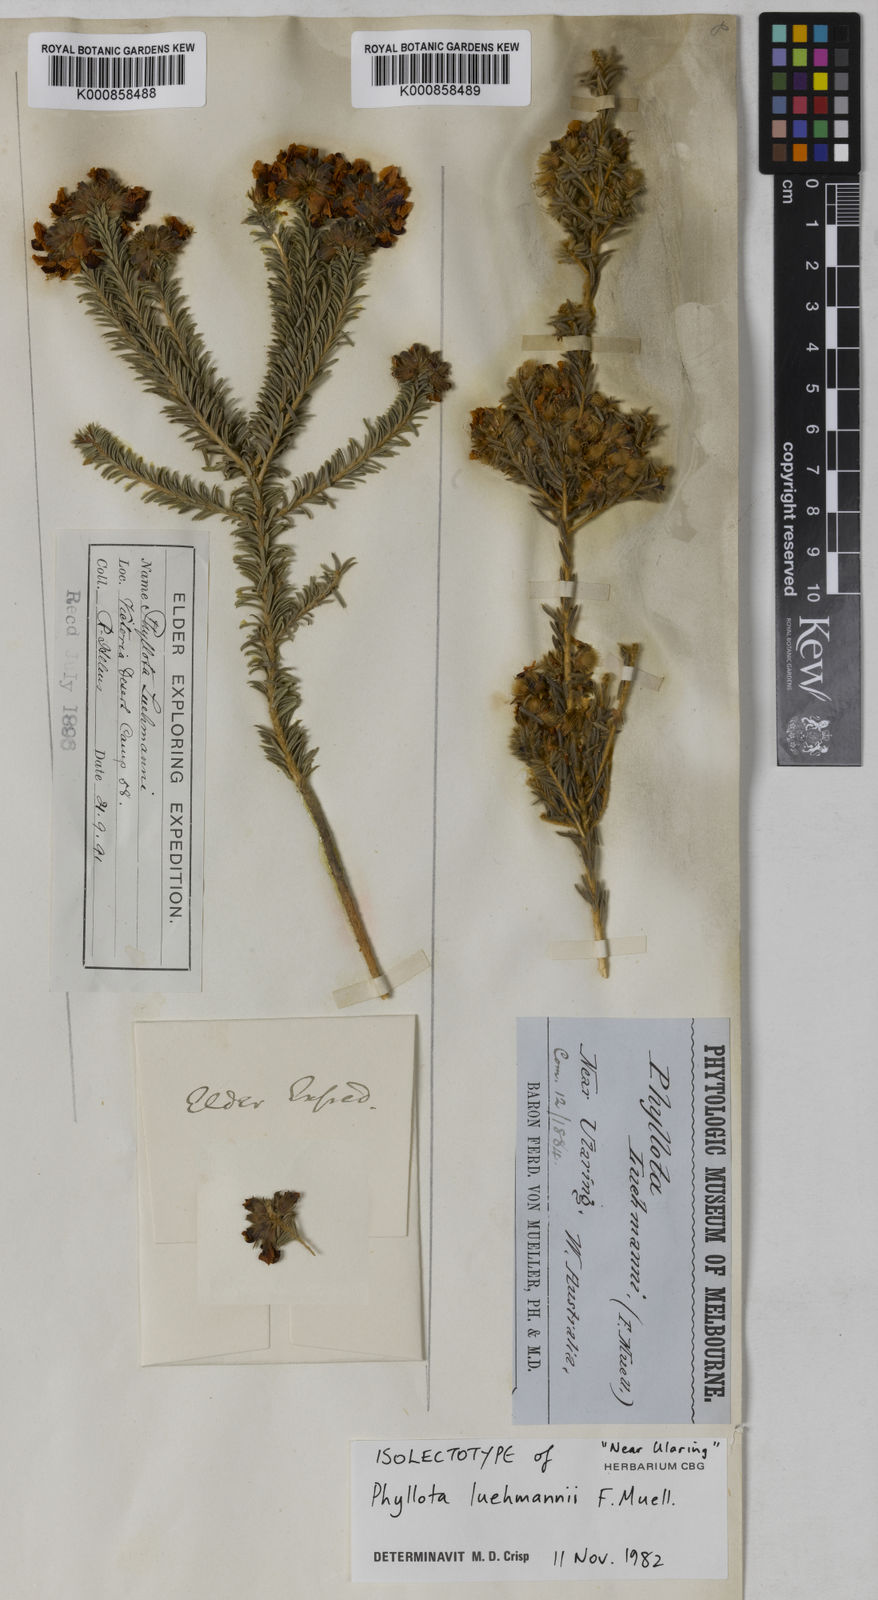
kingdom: Plantae
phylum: Tracheophyta
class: Magnoliopsida
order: Fabales
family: Fabaceae
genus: Phyllota
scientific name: Phyllota luehmannii
